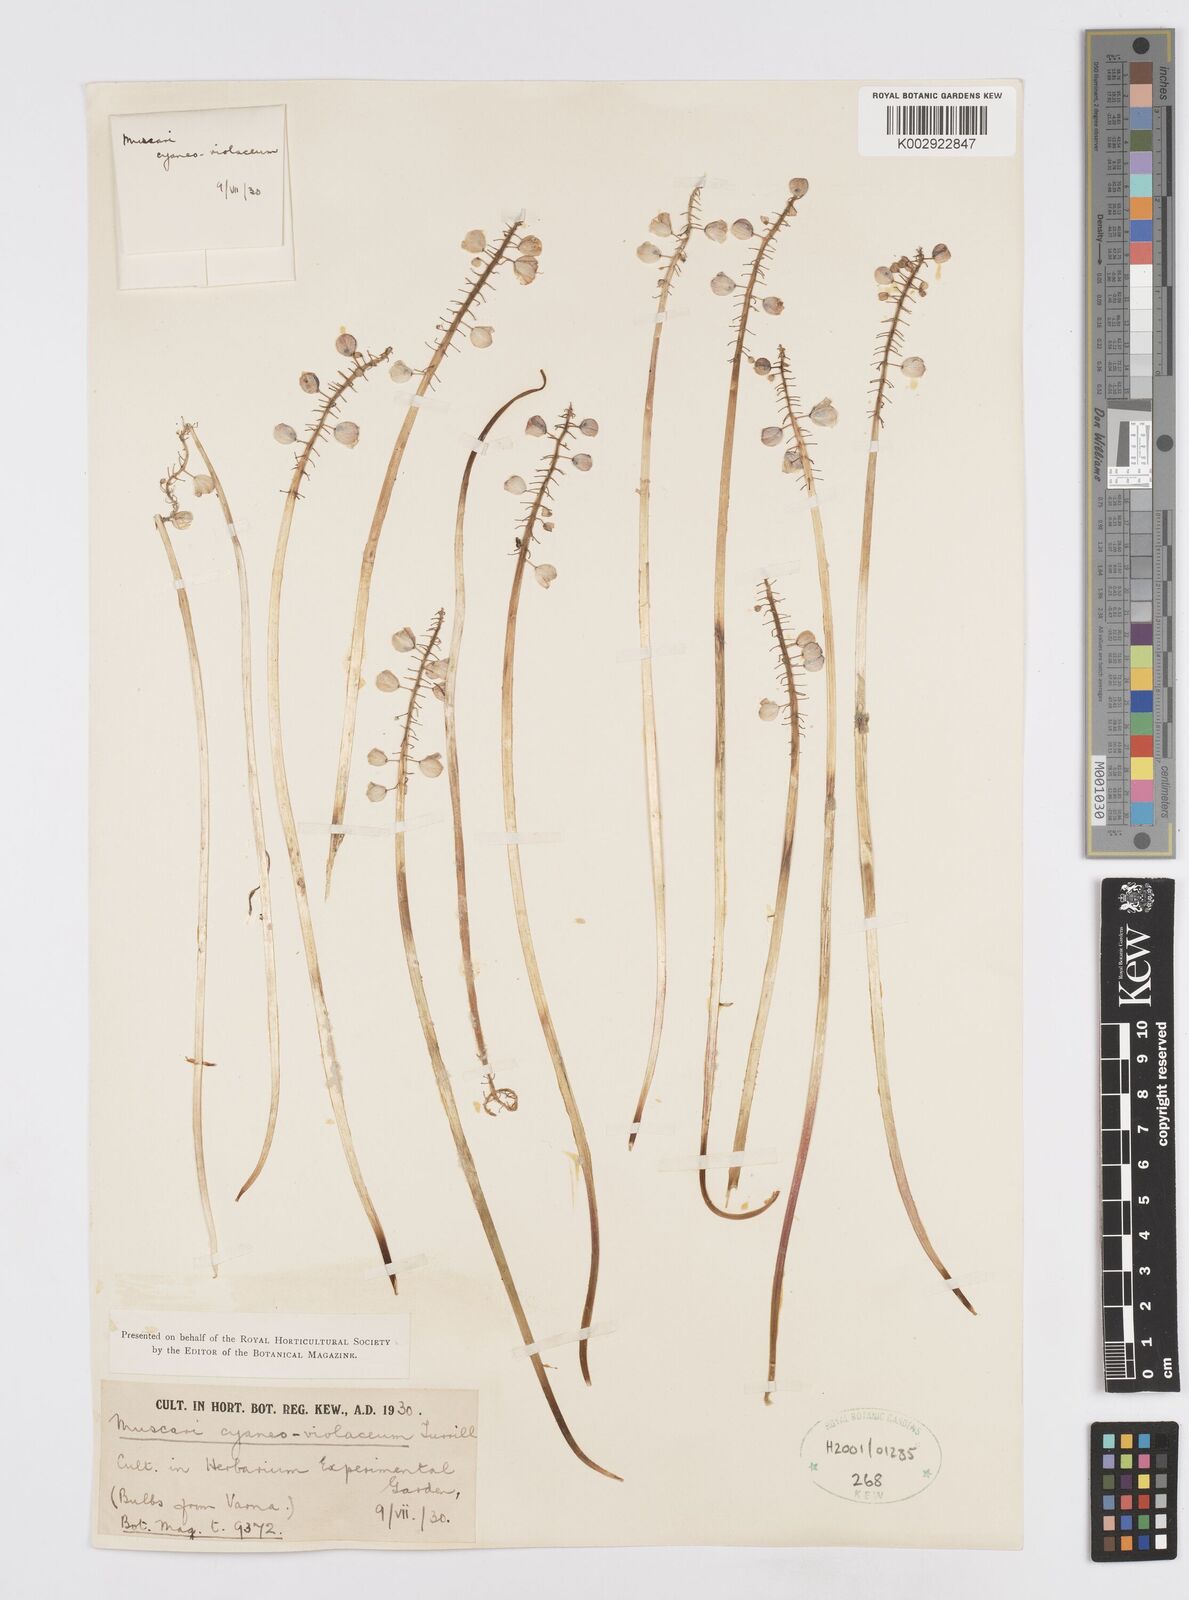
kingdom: Plantae
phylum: Tracheophyta
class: Liliopsida
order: Asparagales
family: Asparagaceae
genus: Muscari
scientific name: Muscari armeniacum
